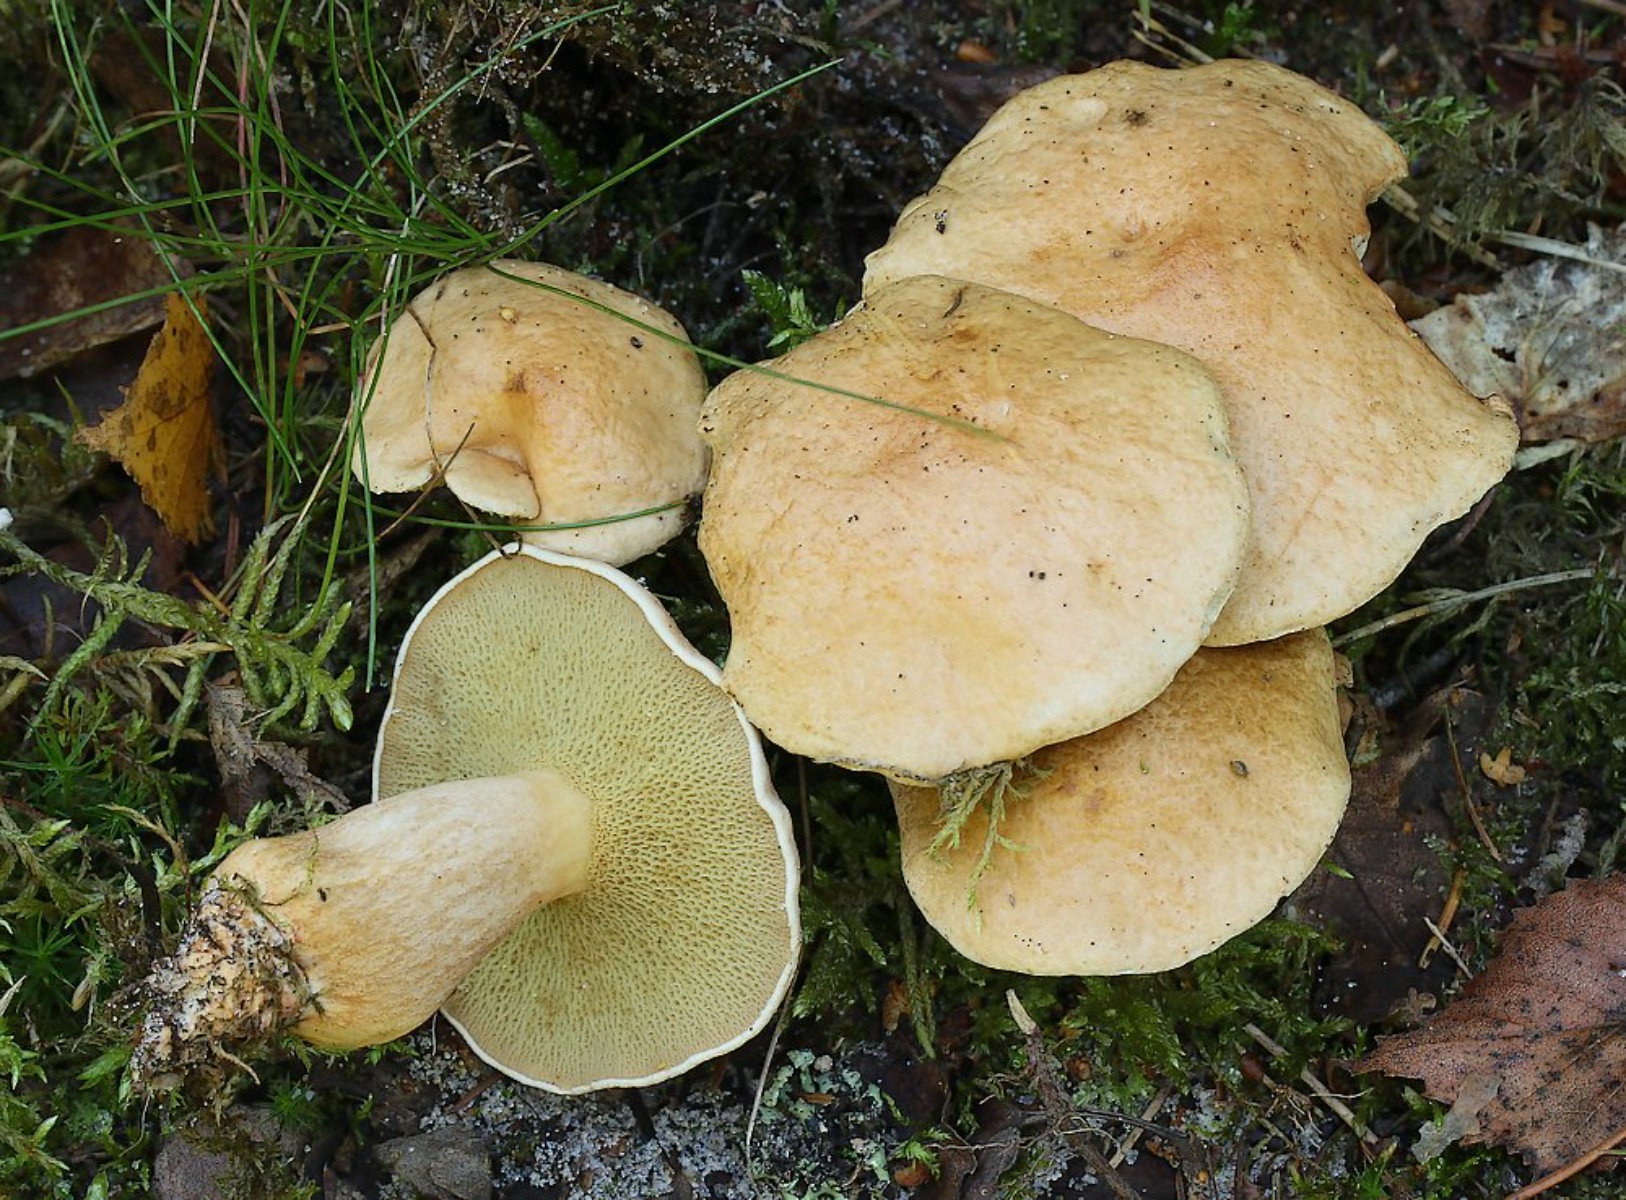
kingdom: Fungi
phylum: Basidiomycota
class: Agaricomycetes
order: Boletales
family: Suillaceae
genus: Suillus
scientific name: Suillus bovinus
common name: grovporet slimrørhat
